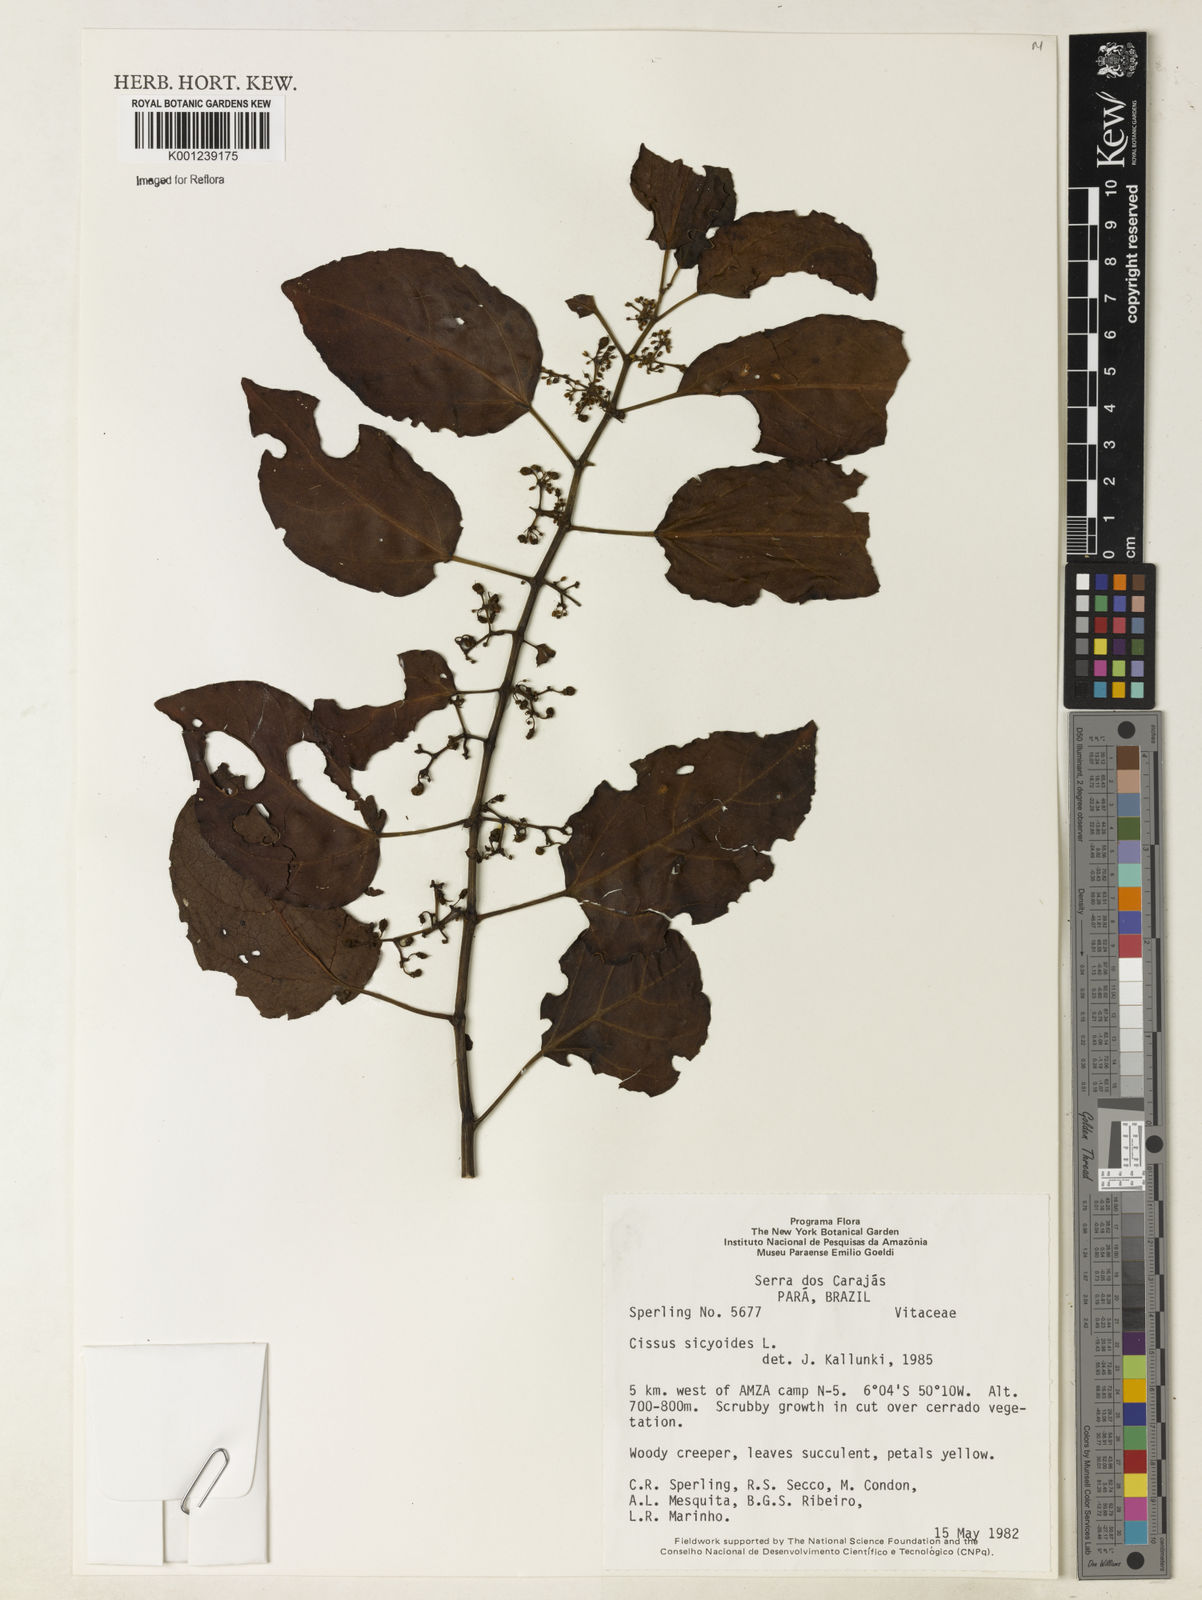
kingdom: Plantae
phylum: Tracheophyta
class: Magnoliopsida
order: Vitales
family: Vitaceae
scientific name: Vitaceae
